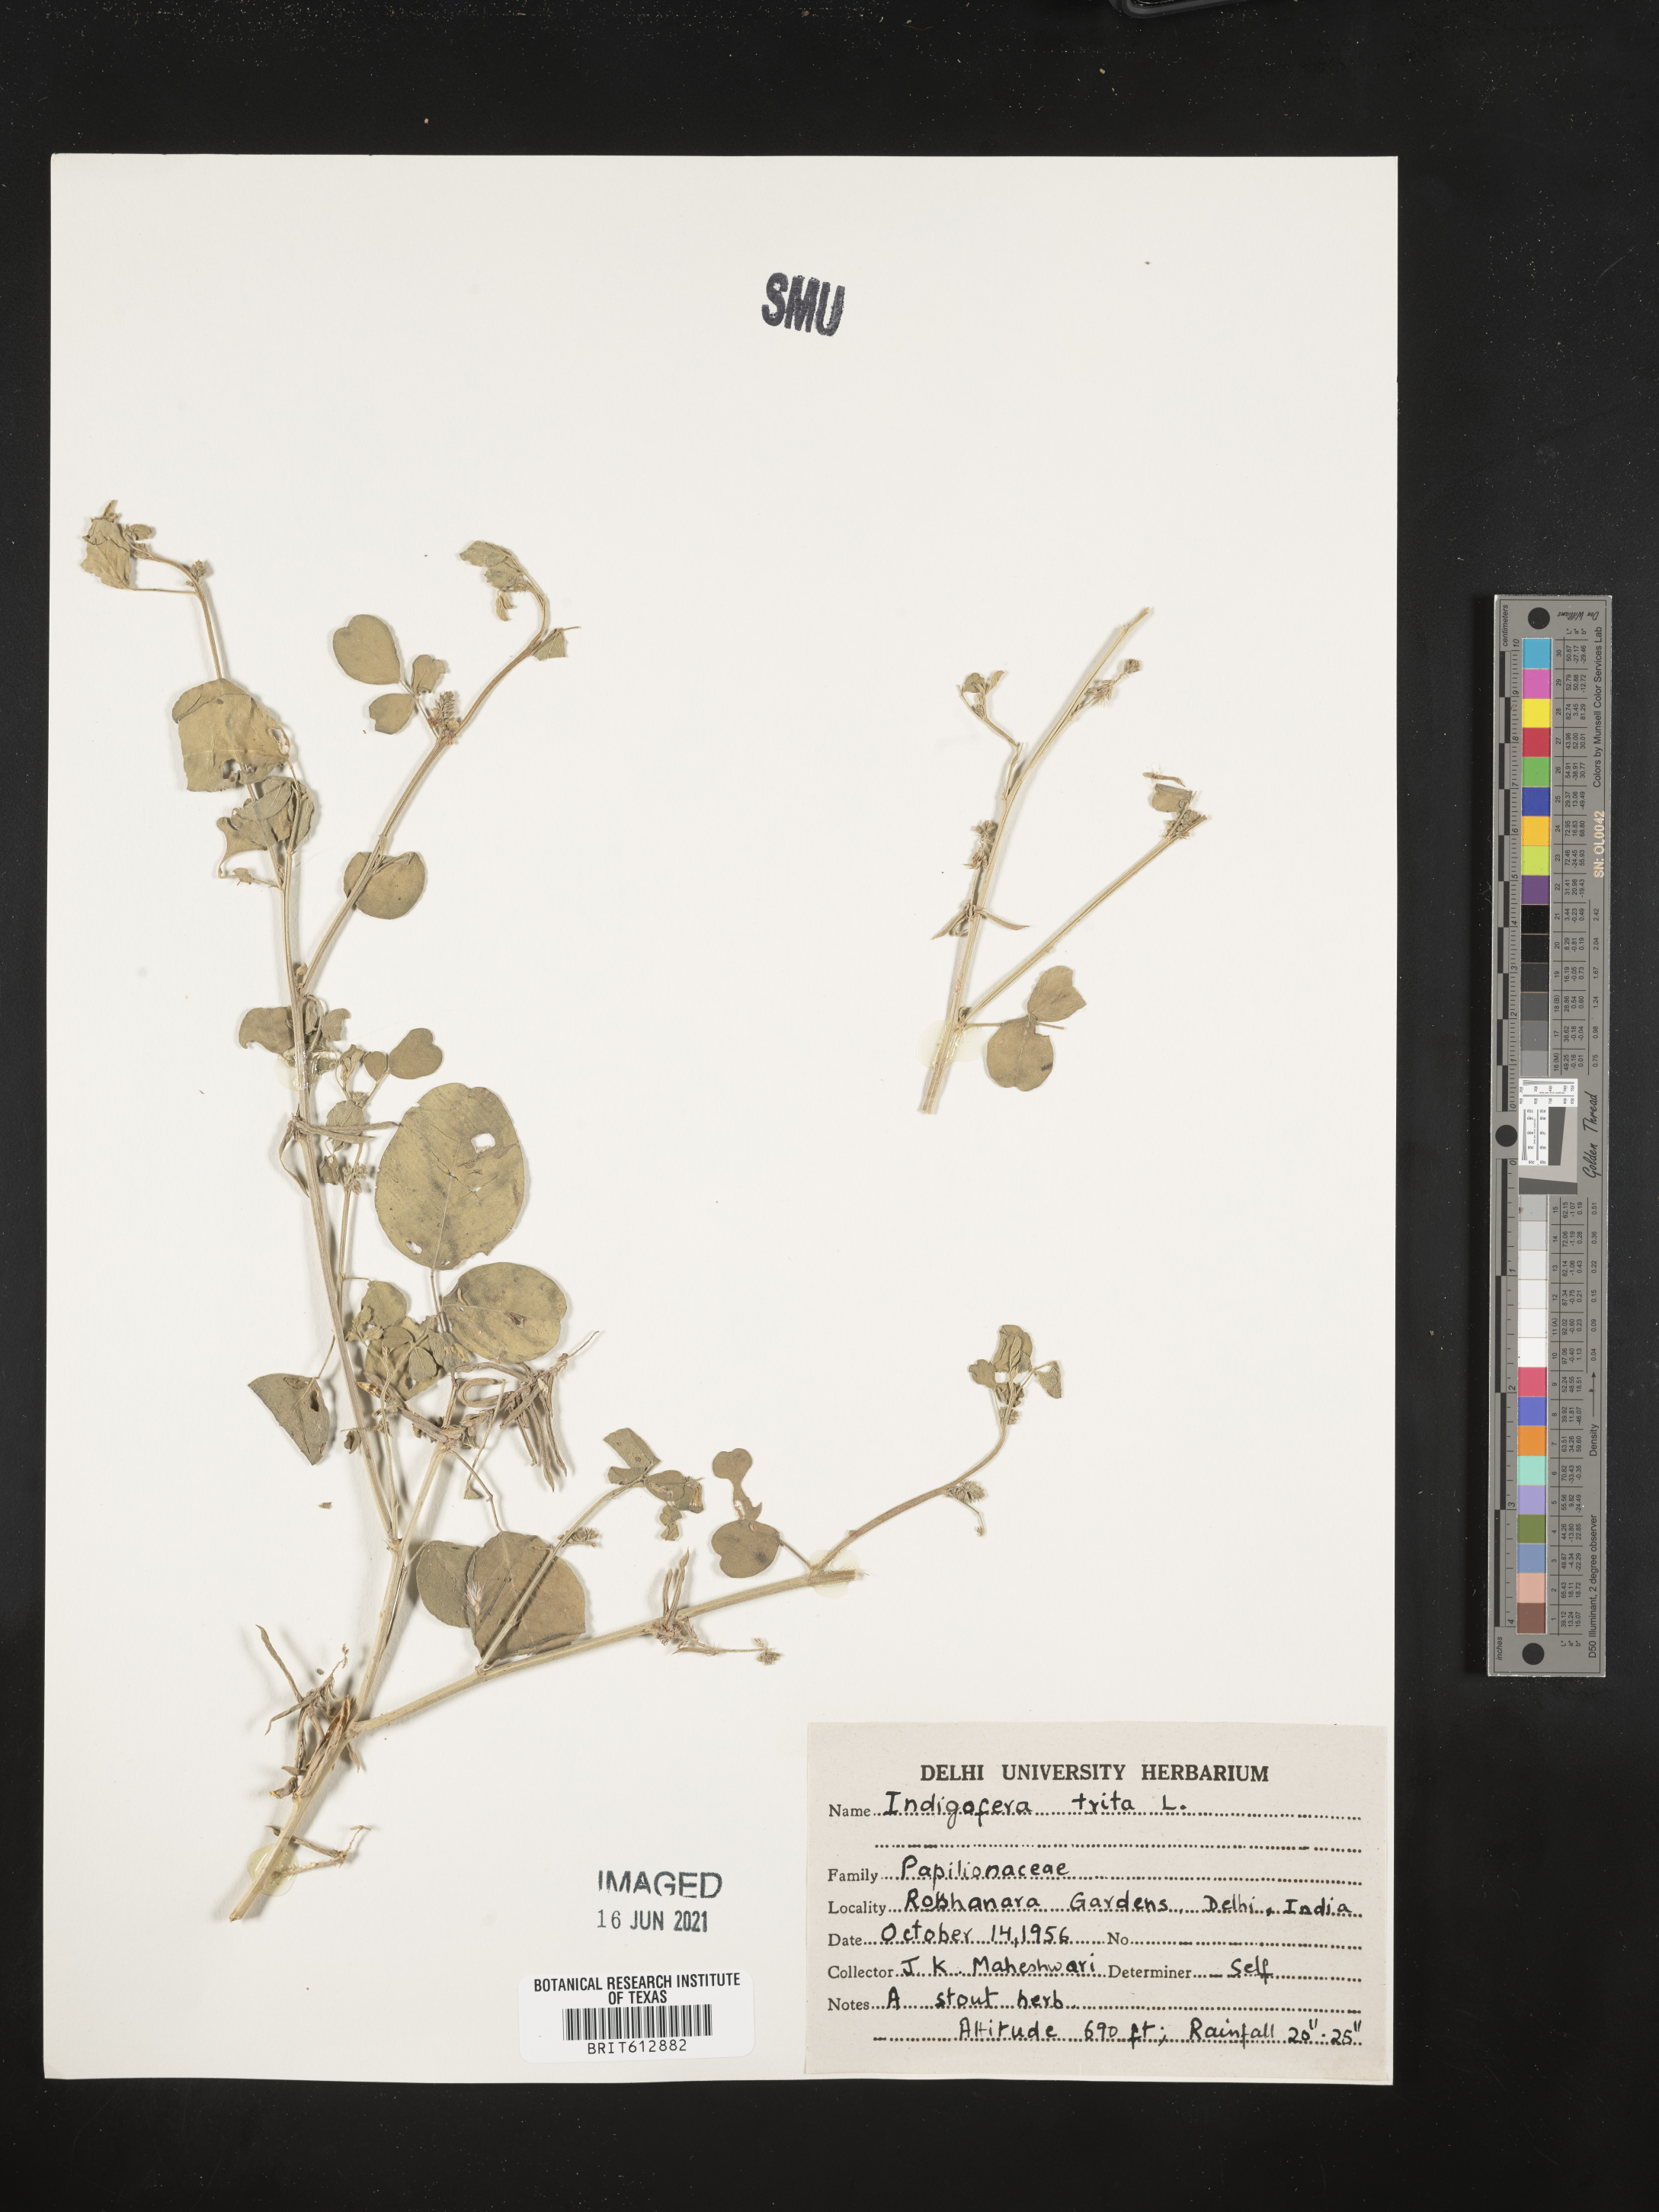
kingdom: Plantae
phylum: Tracheophyta
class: Magnoliopsida
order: Fabales
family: Fabaceae
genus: Indigofera
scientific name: Indigofera trita
